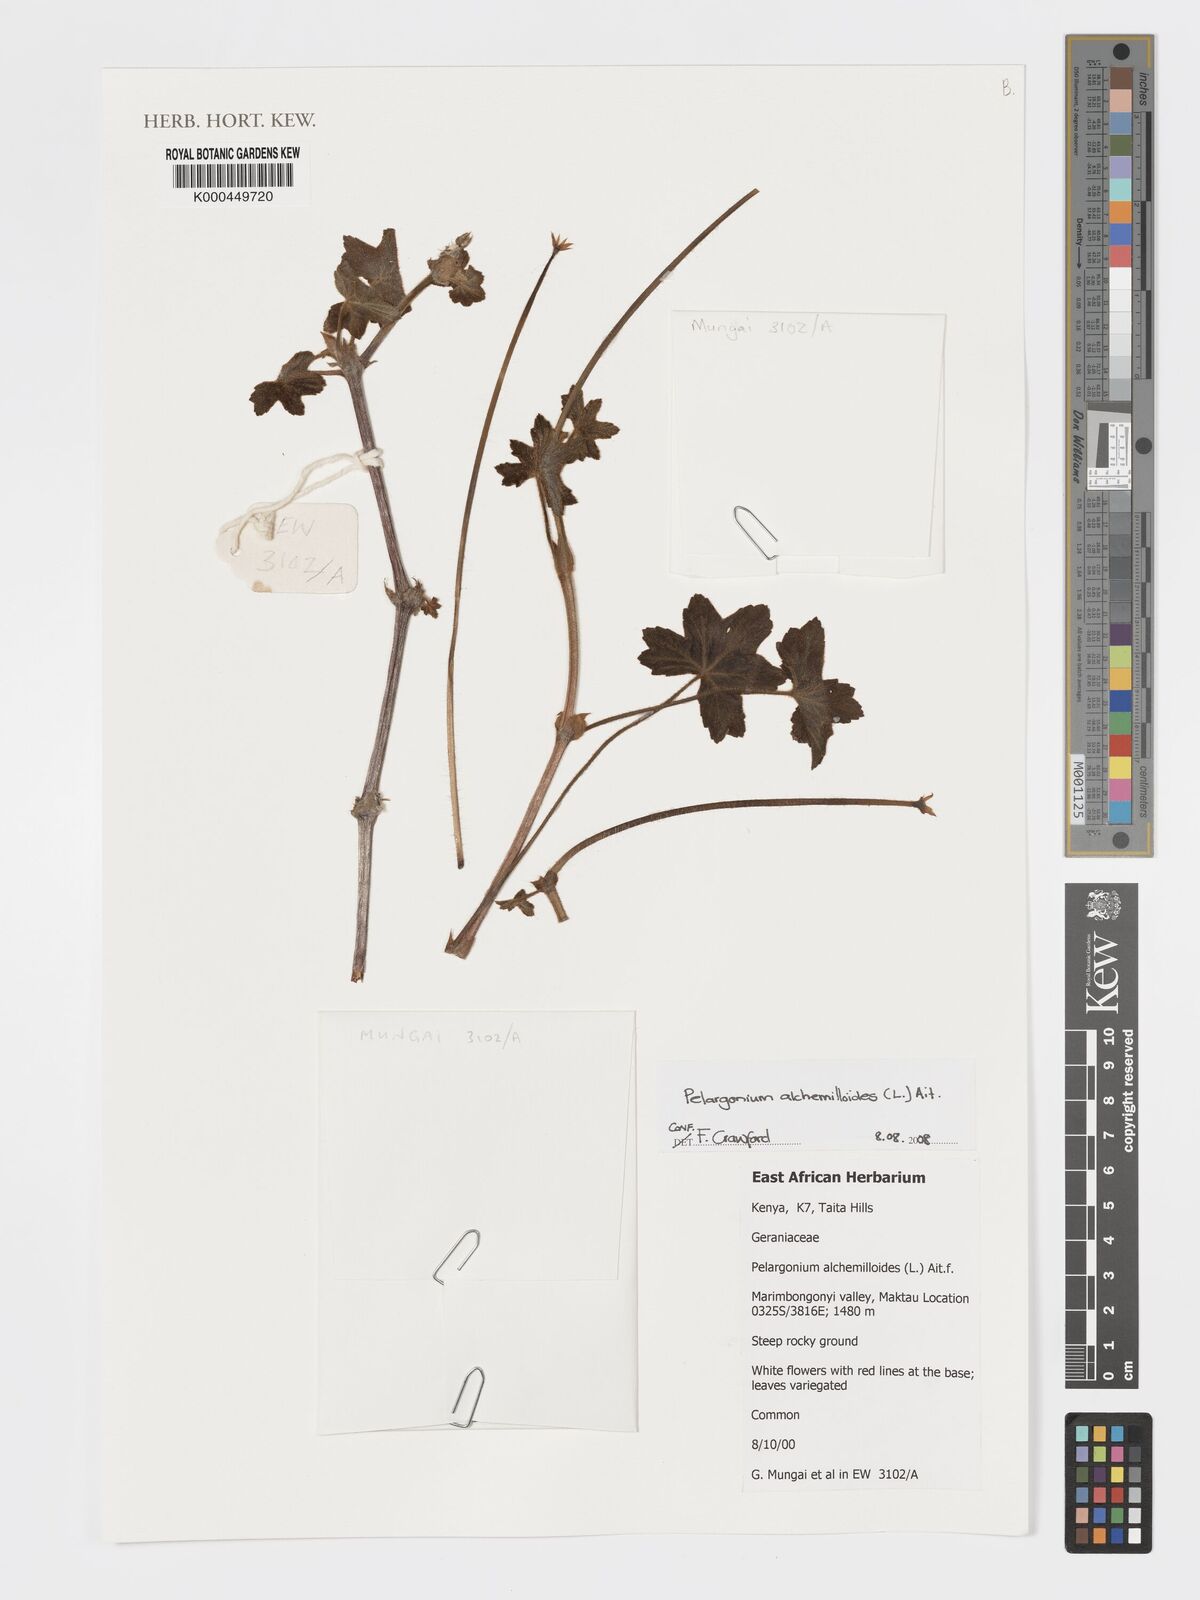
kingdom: Plantae
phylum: Tracheophyta
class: Magnoliopsida
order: Geraniales
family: Geraniaceae
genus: Pelargonium
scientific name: Pelargonium
